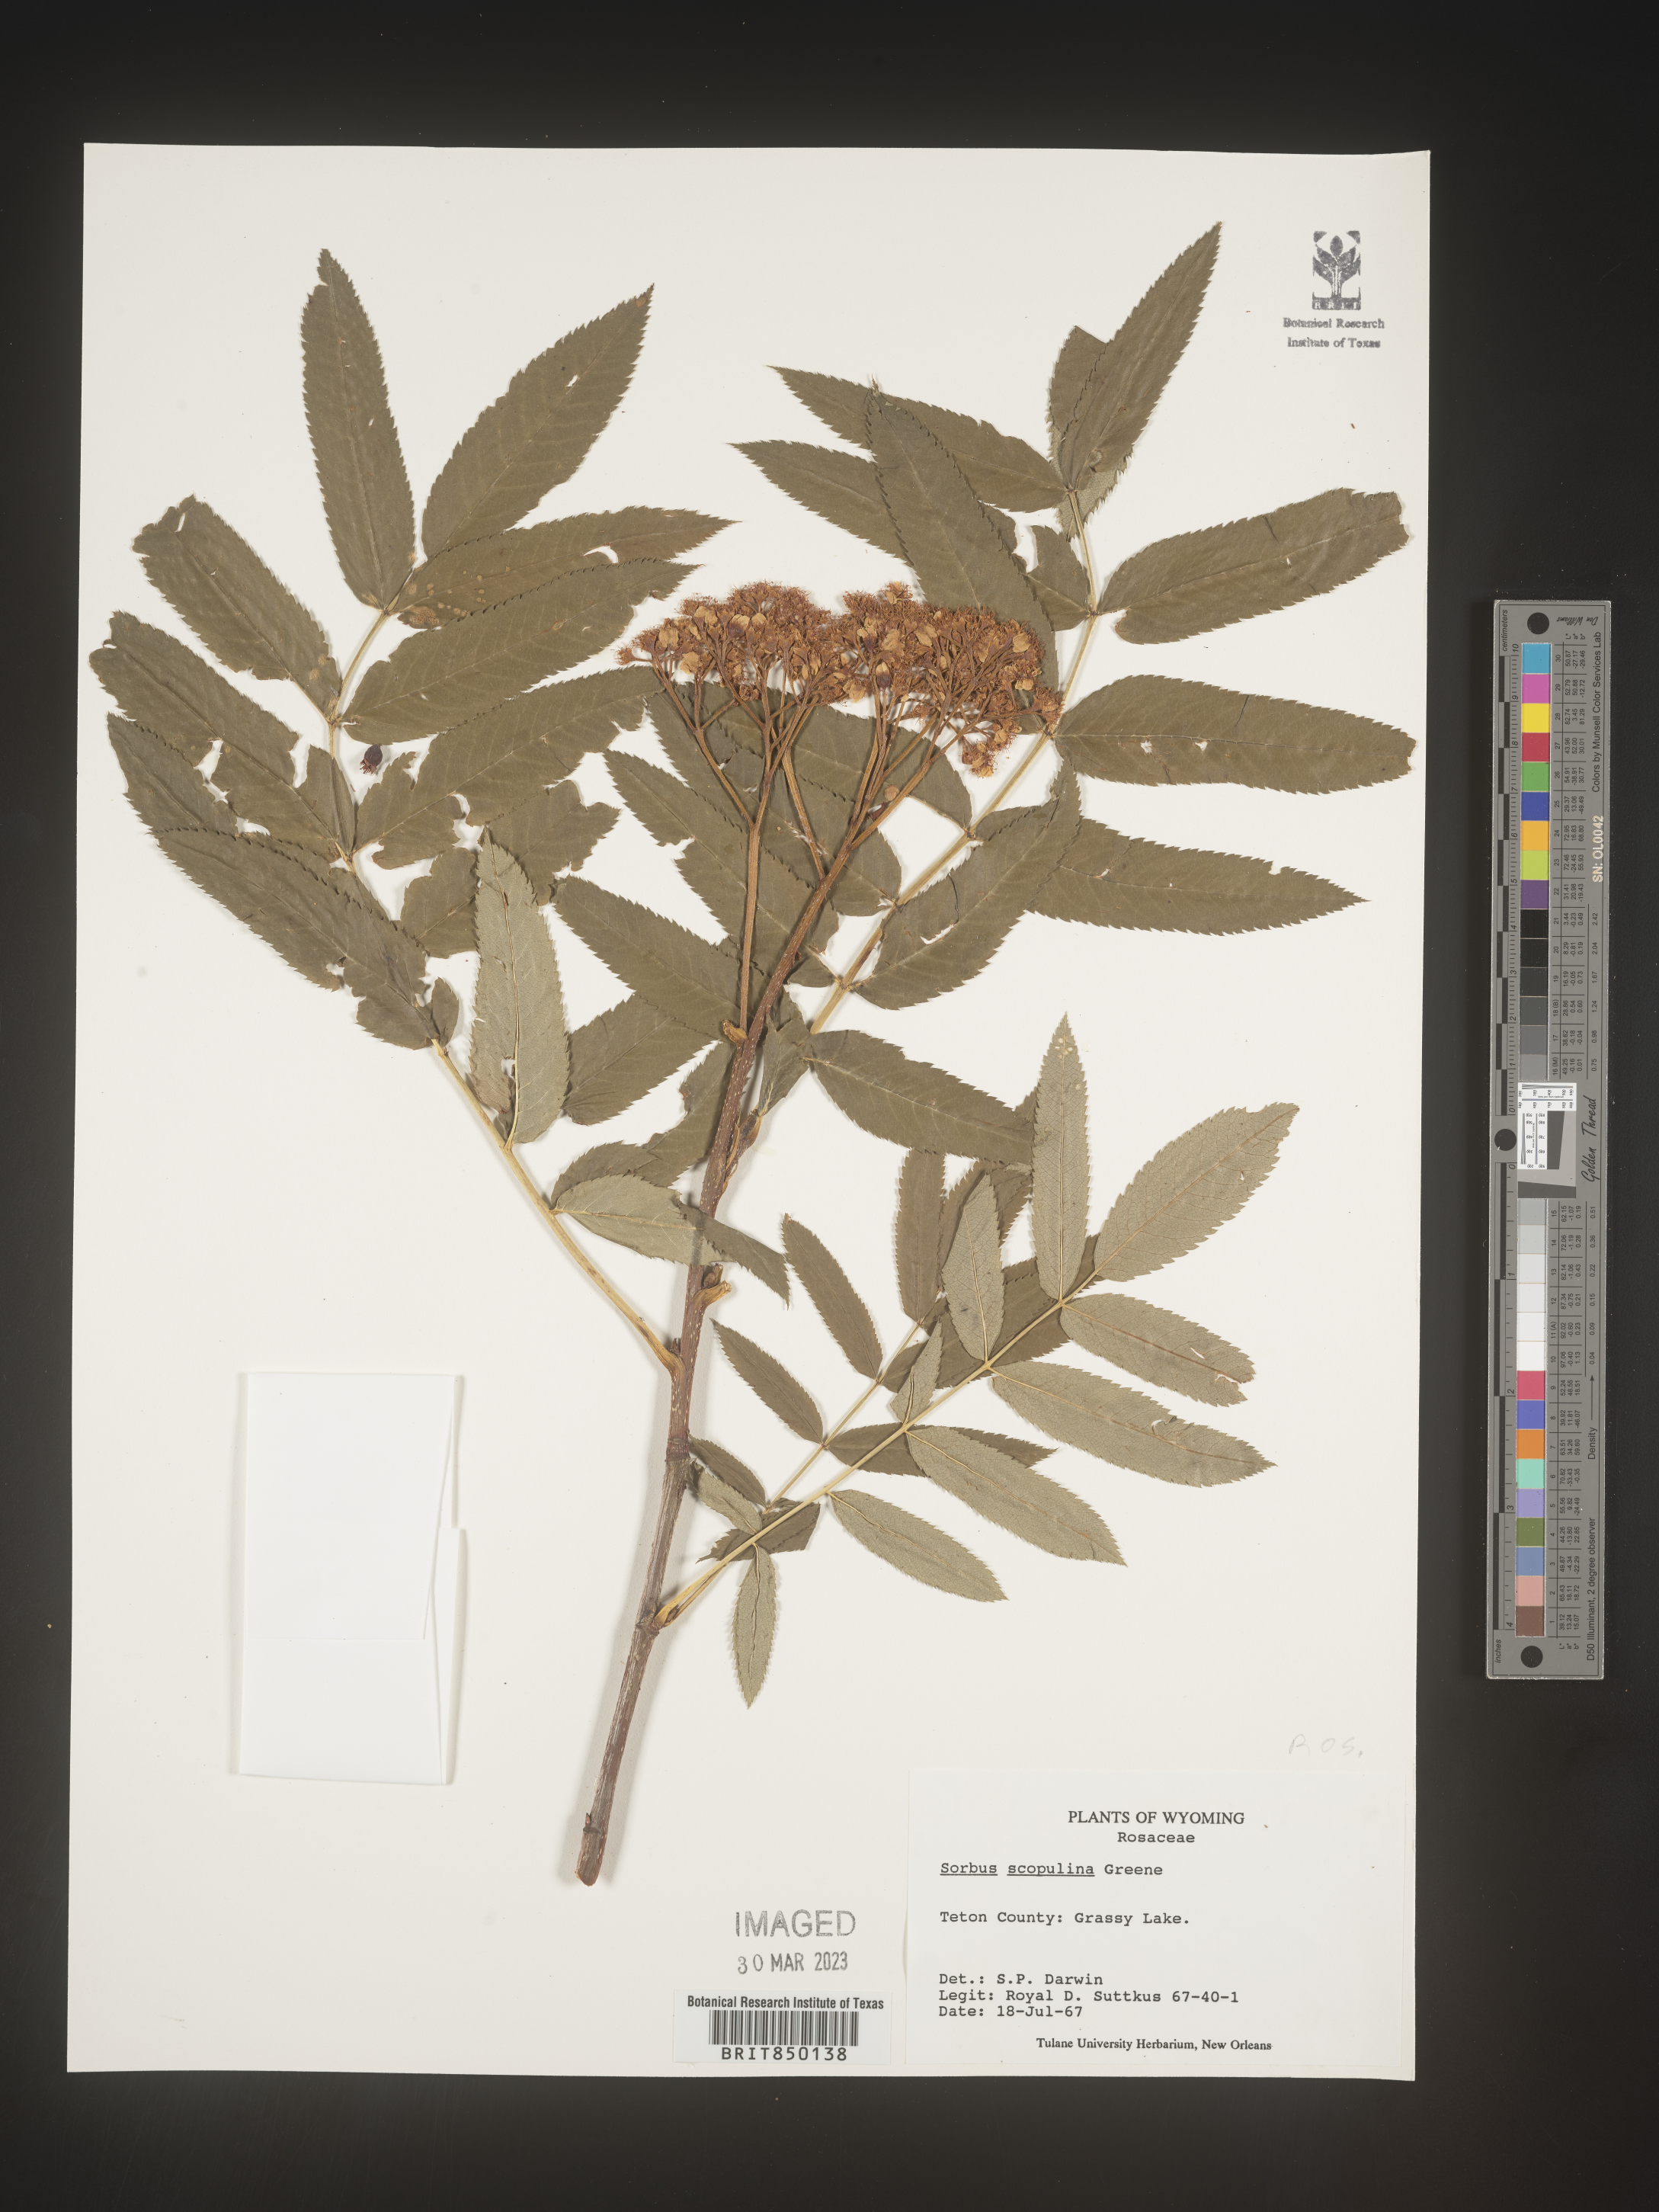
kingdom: Plantae
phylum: Tracheophyta
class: Magnoliopsida
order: Rosales
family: Rosaceae
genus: Sorbus
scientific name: Sorbus scopulina
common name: Greene's mountain-ash
